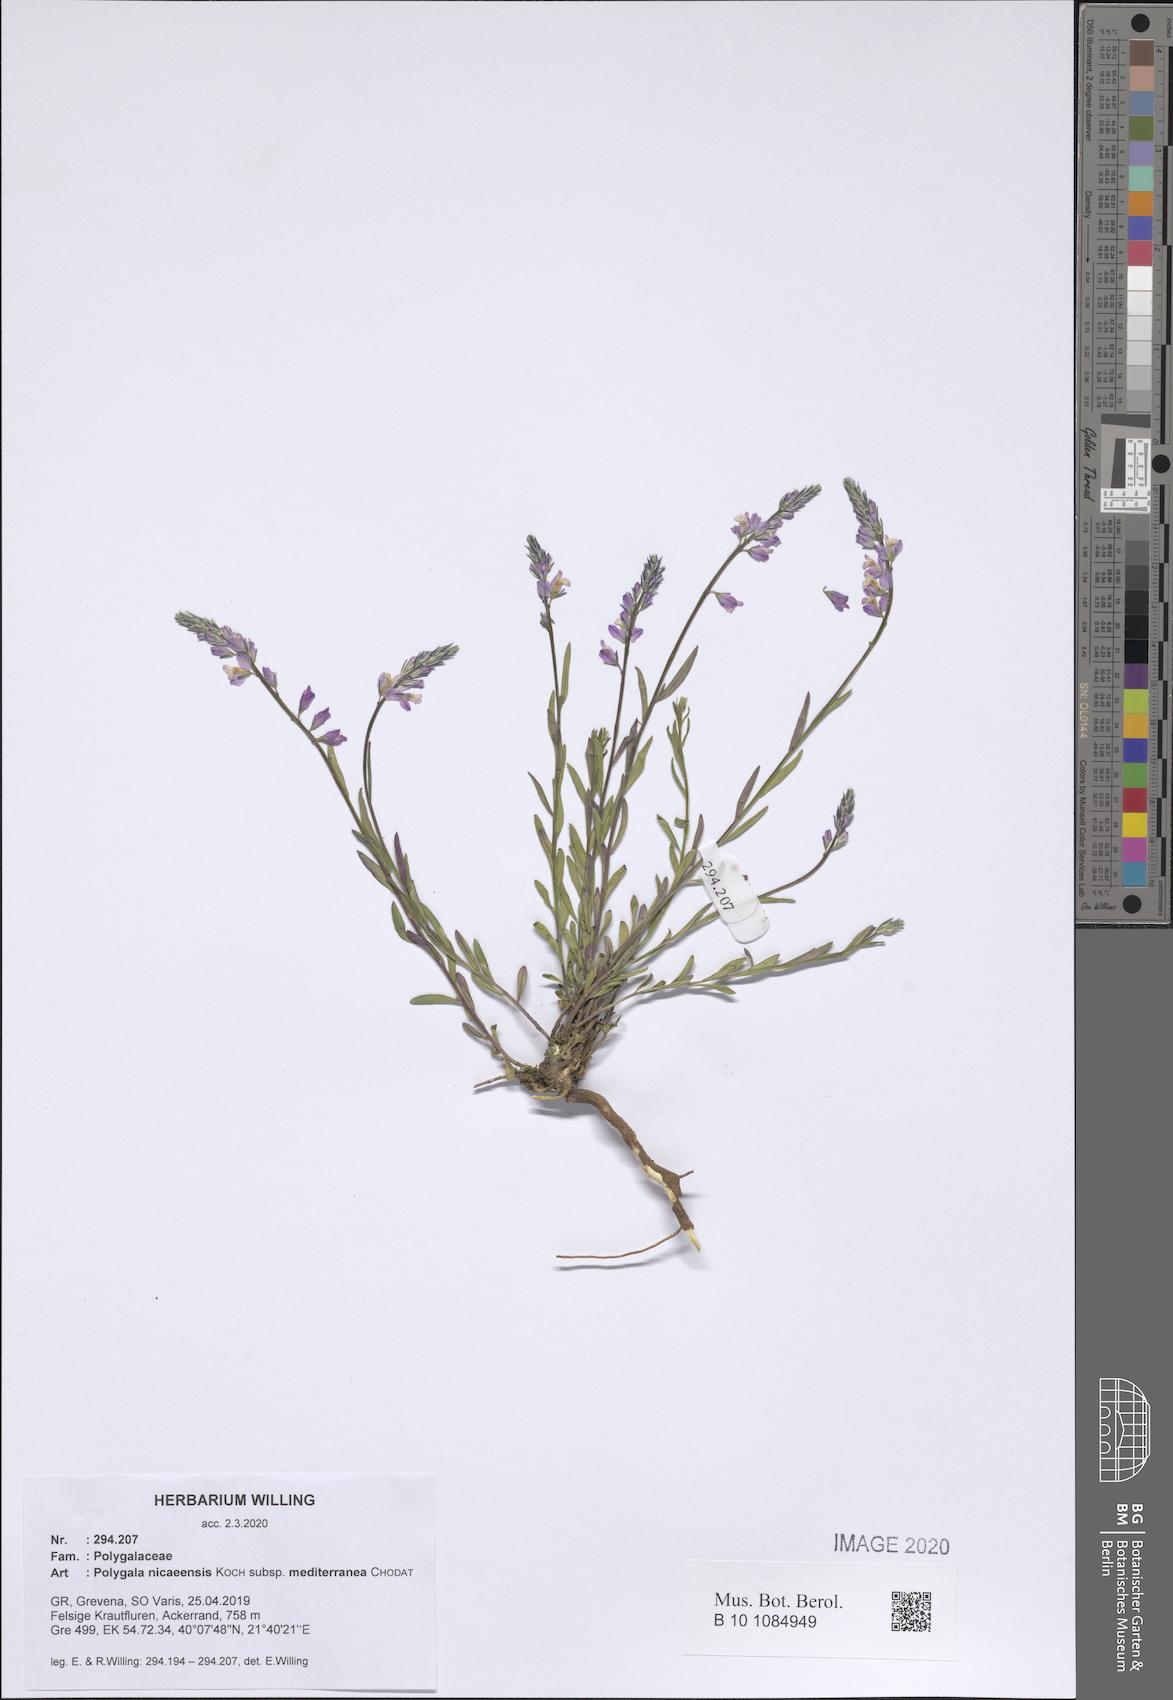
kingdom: Plantae
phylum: Tracheophyta
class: Magnoliopsida
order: Fabales
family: Polygalaceae
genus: Polygala
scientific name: Polygala nicaeensis
